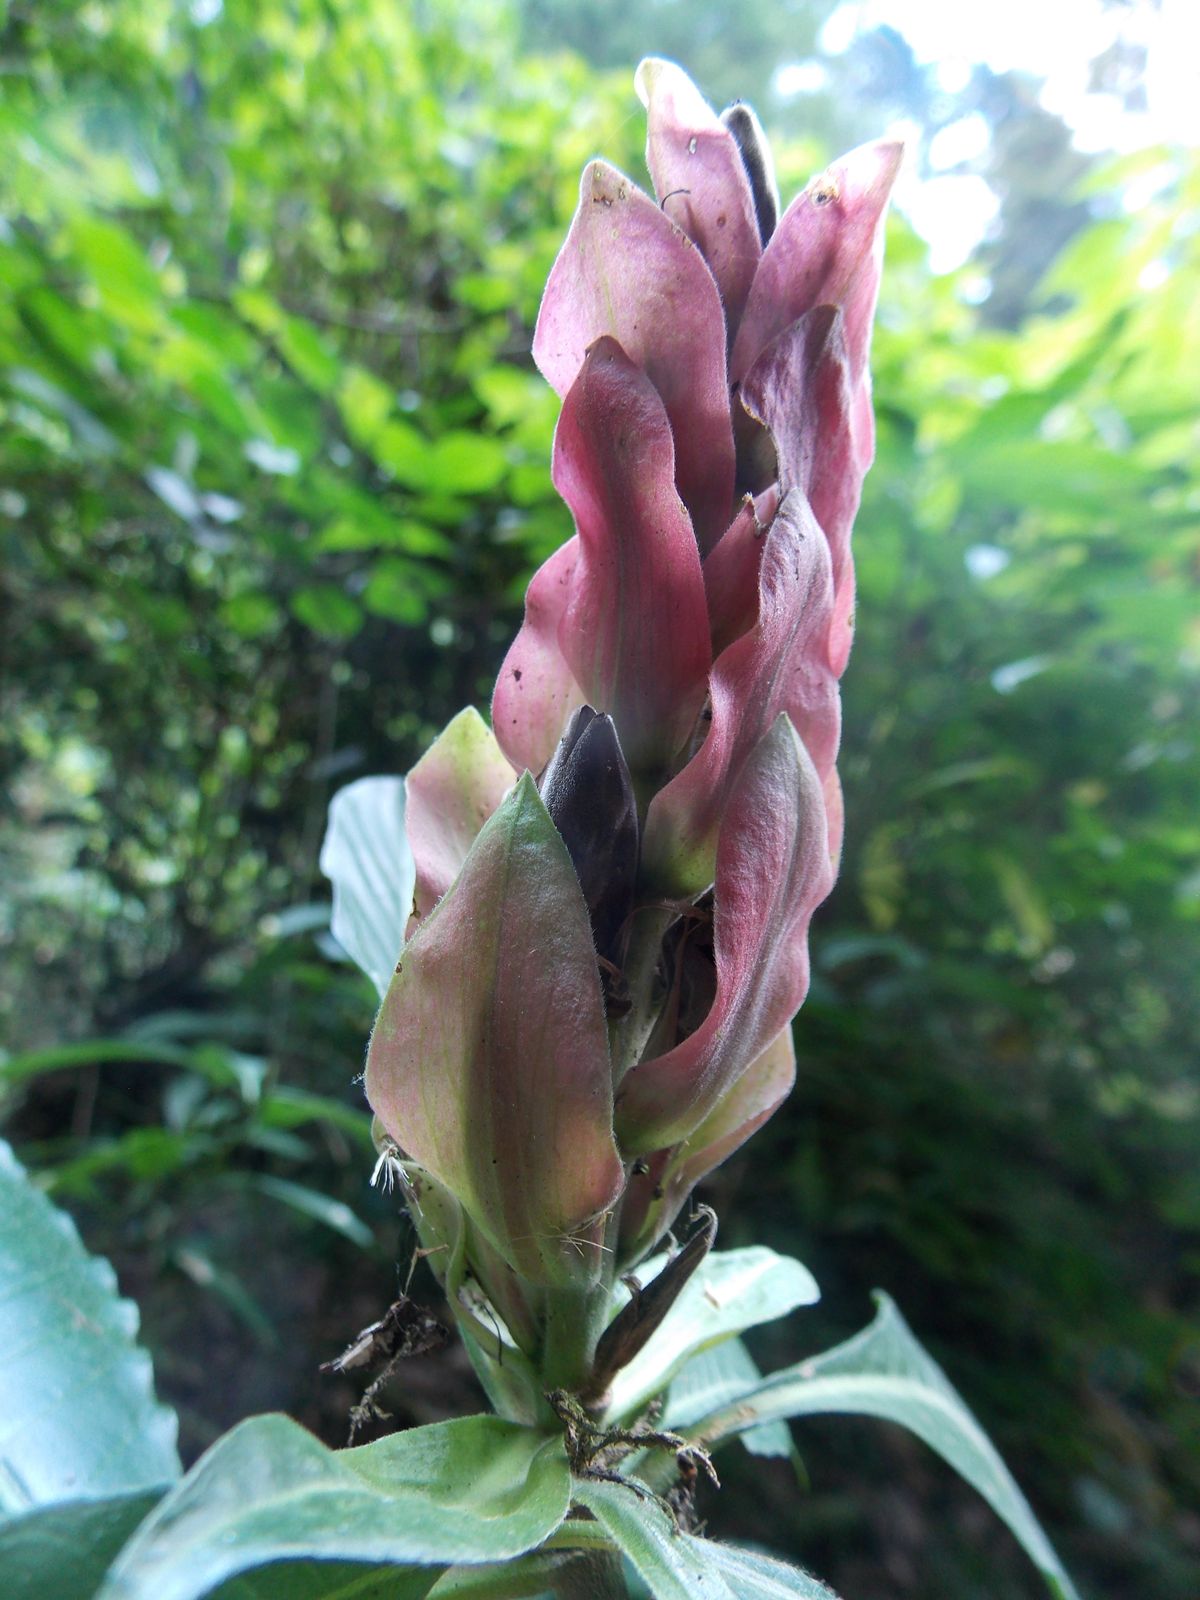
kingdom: Plantae
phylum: Tracheophyta
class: Magnoliopsida
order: Lamiales
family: Acanthaceae
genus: Aphelandra
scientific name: Aphelandra schiedeana
